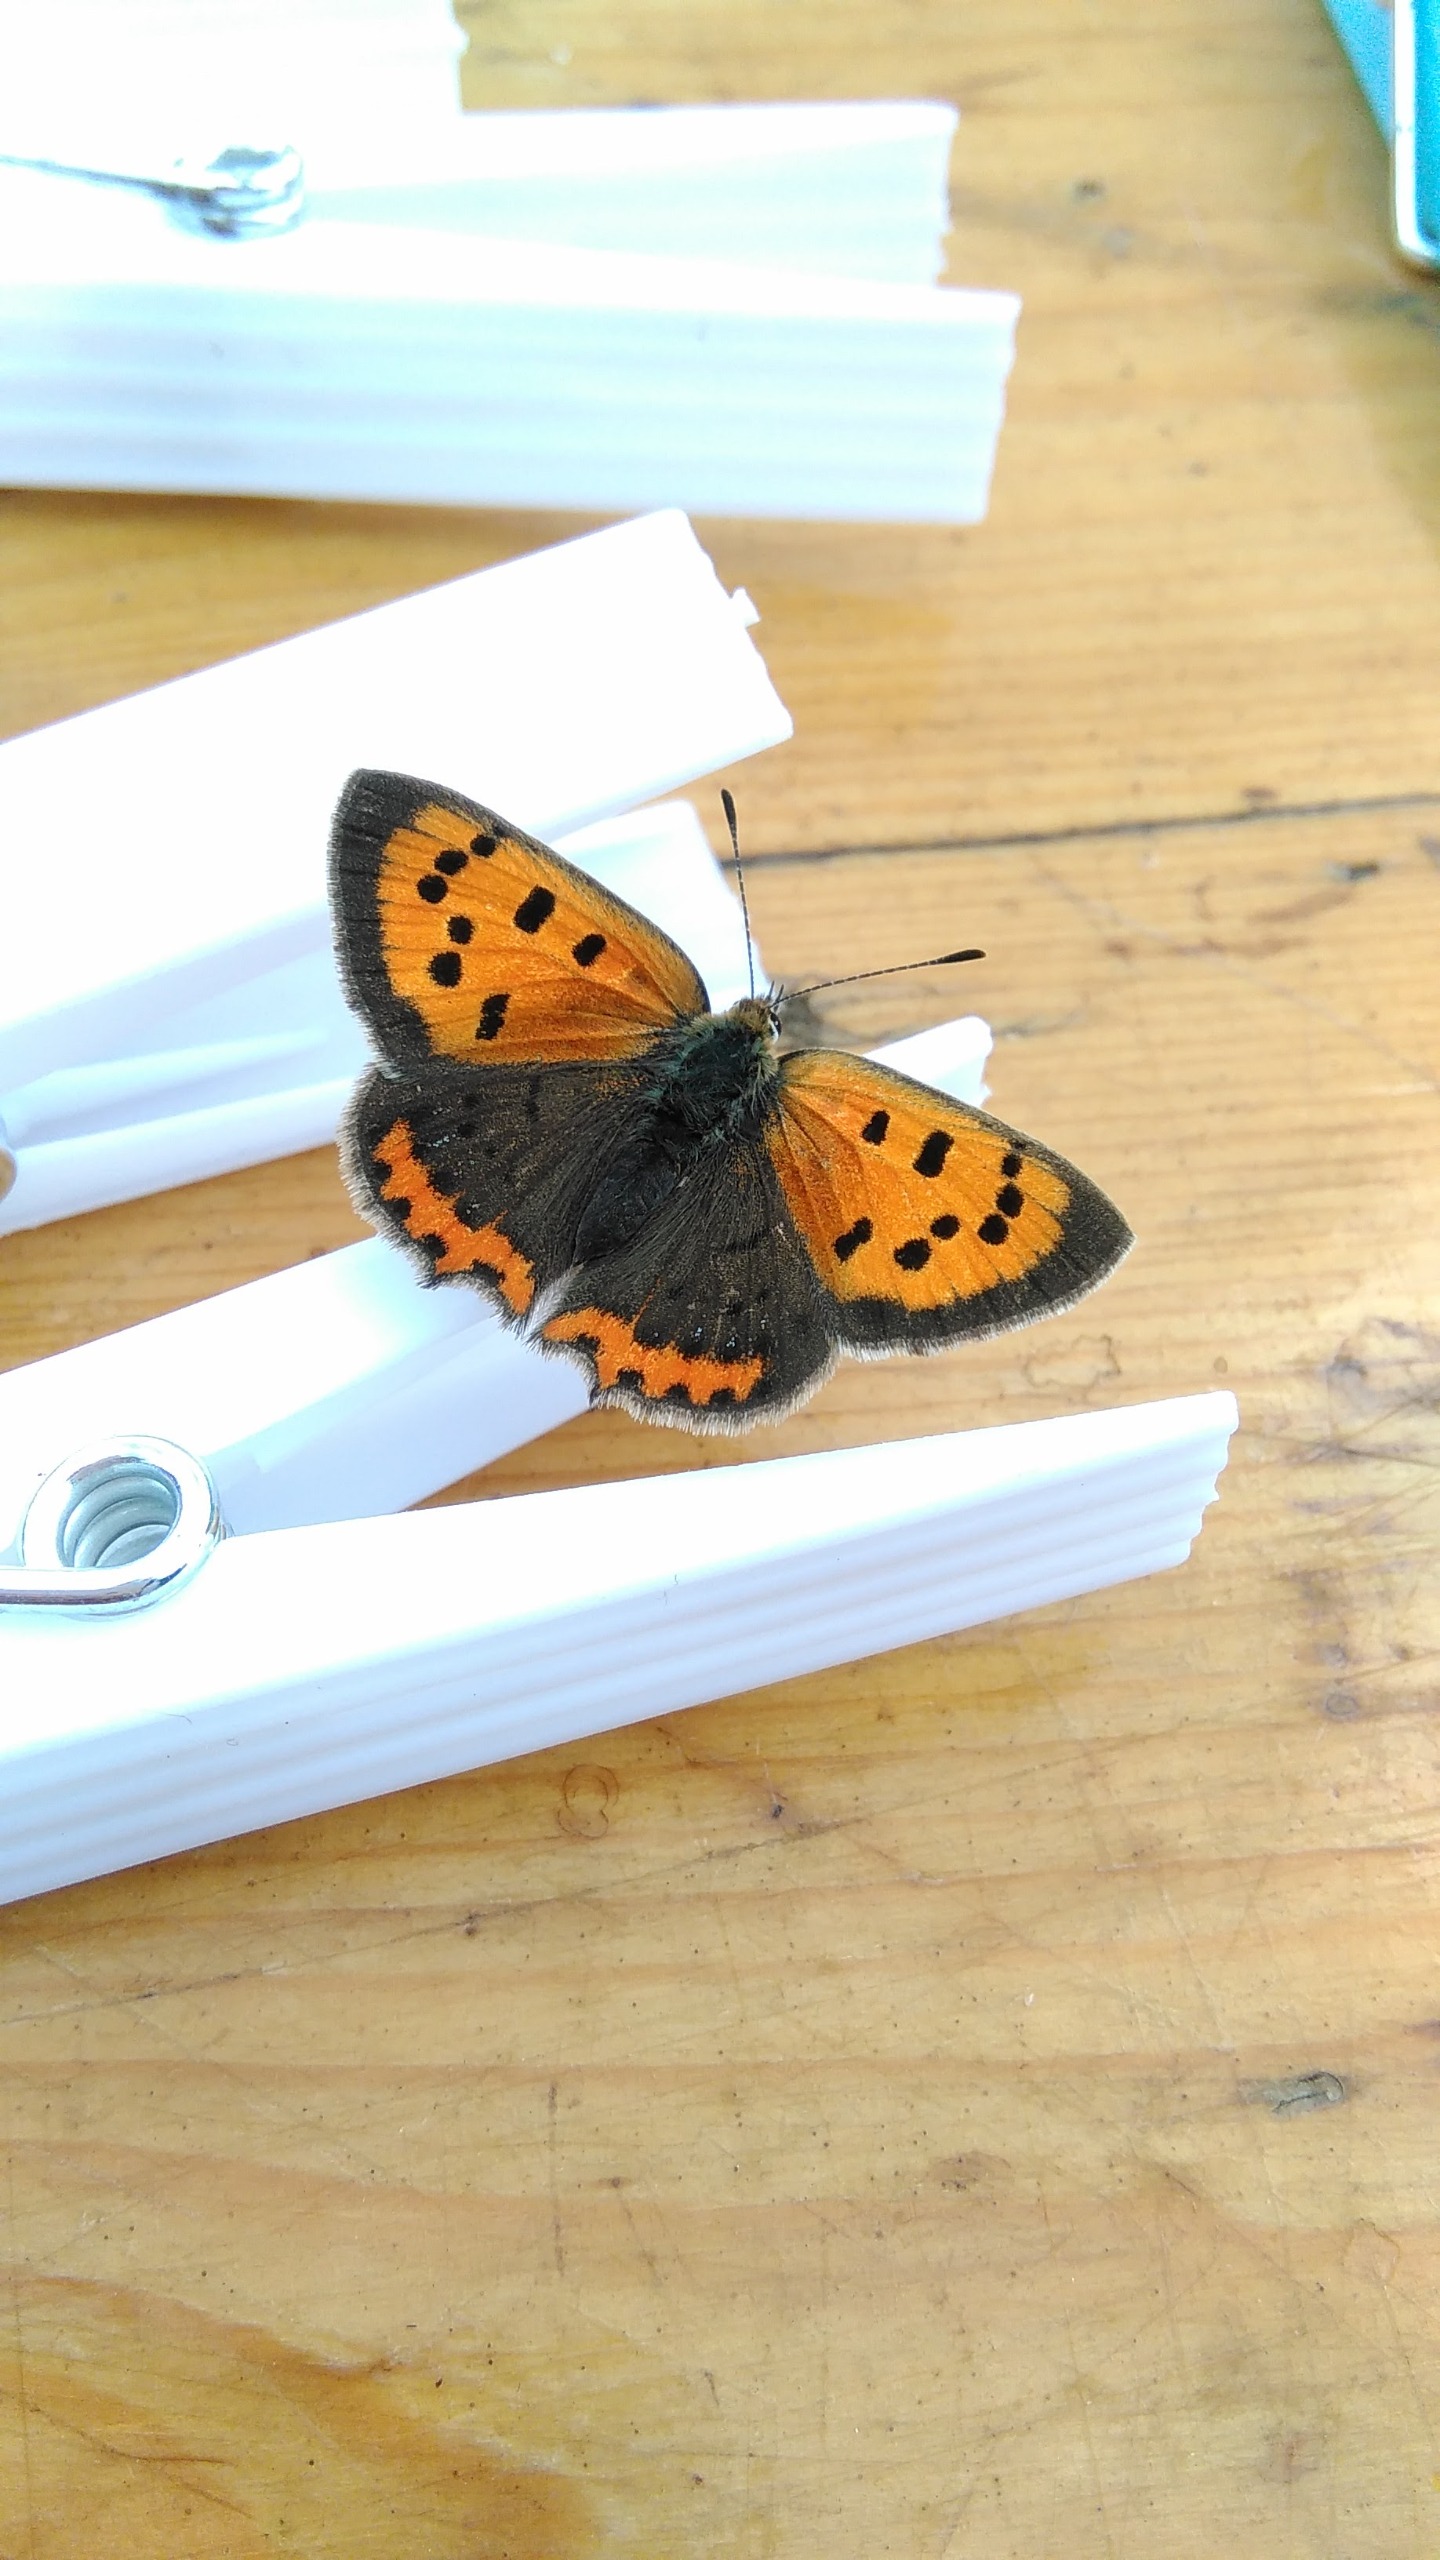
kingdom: Animalia
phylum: Arthropoda
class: Insecta
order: Lepidoptera
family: Lycaenidae
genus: Lycaena
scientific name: Lycaena phlaeas
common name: Lille ildfugl
